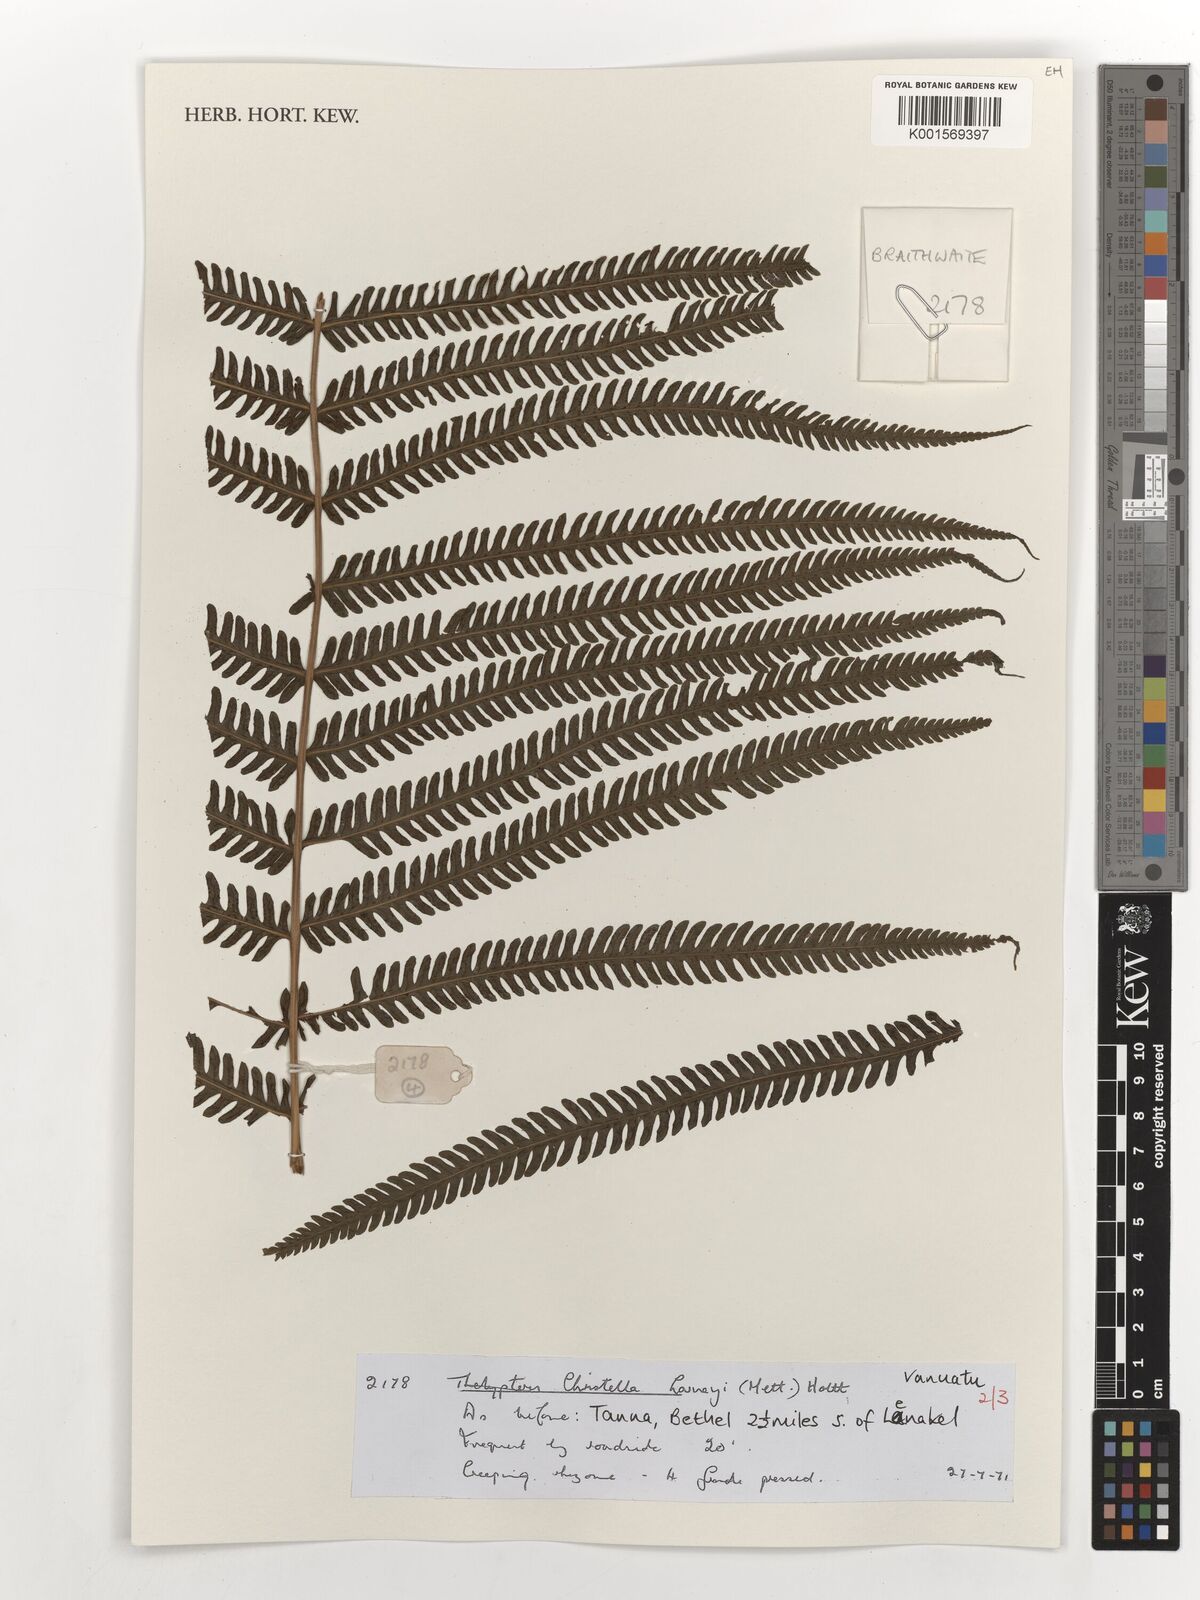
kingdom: Plantae
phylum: Tracheophyta
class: Polypodiopsida
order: Polypodiales
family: Thelypteridaceae
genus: Christella
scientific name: Christella harveyi
